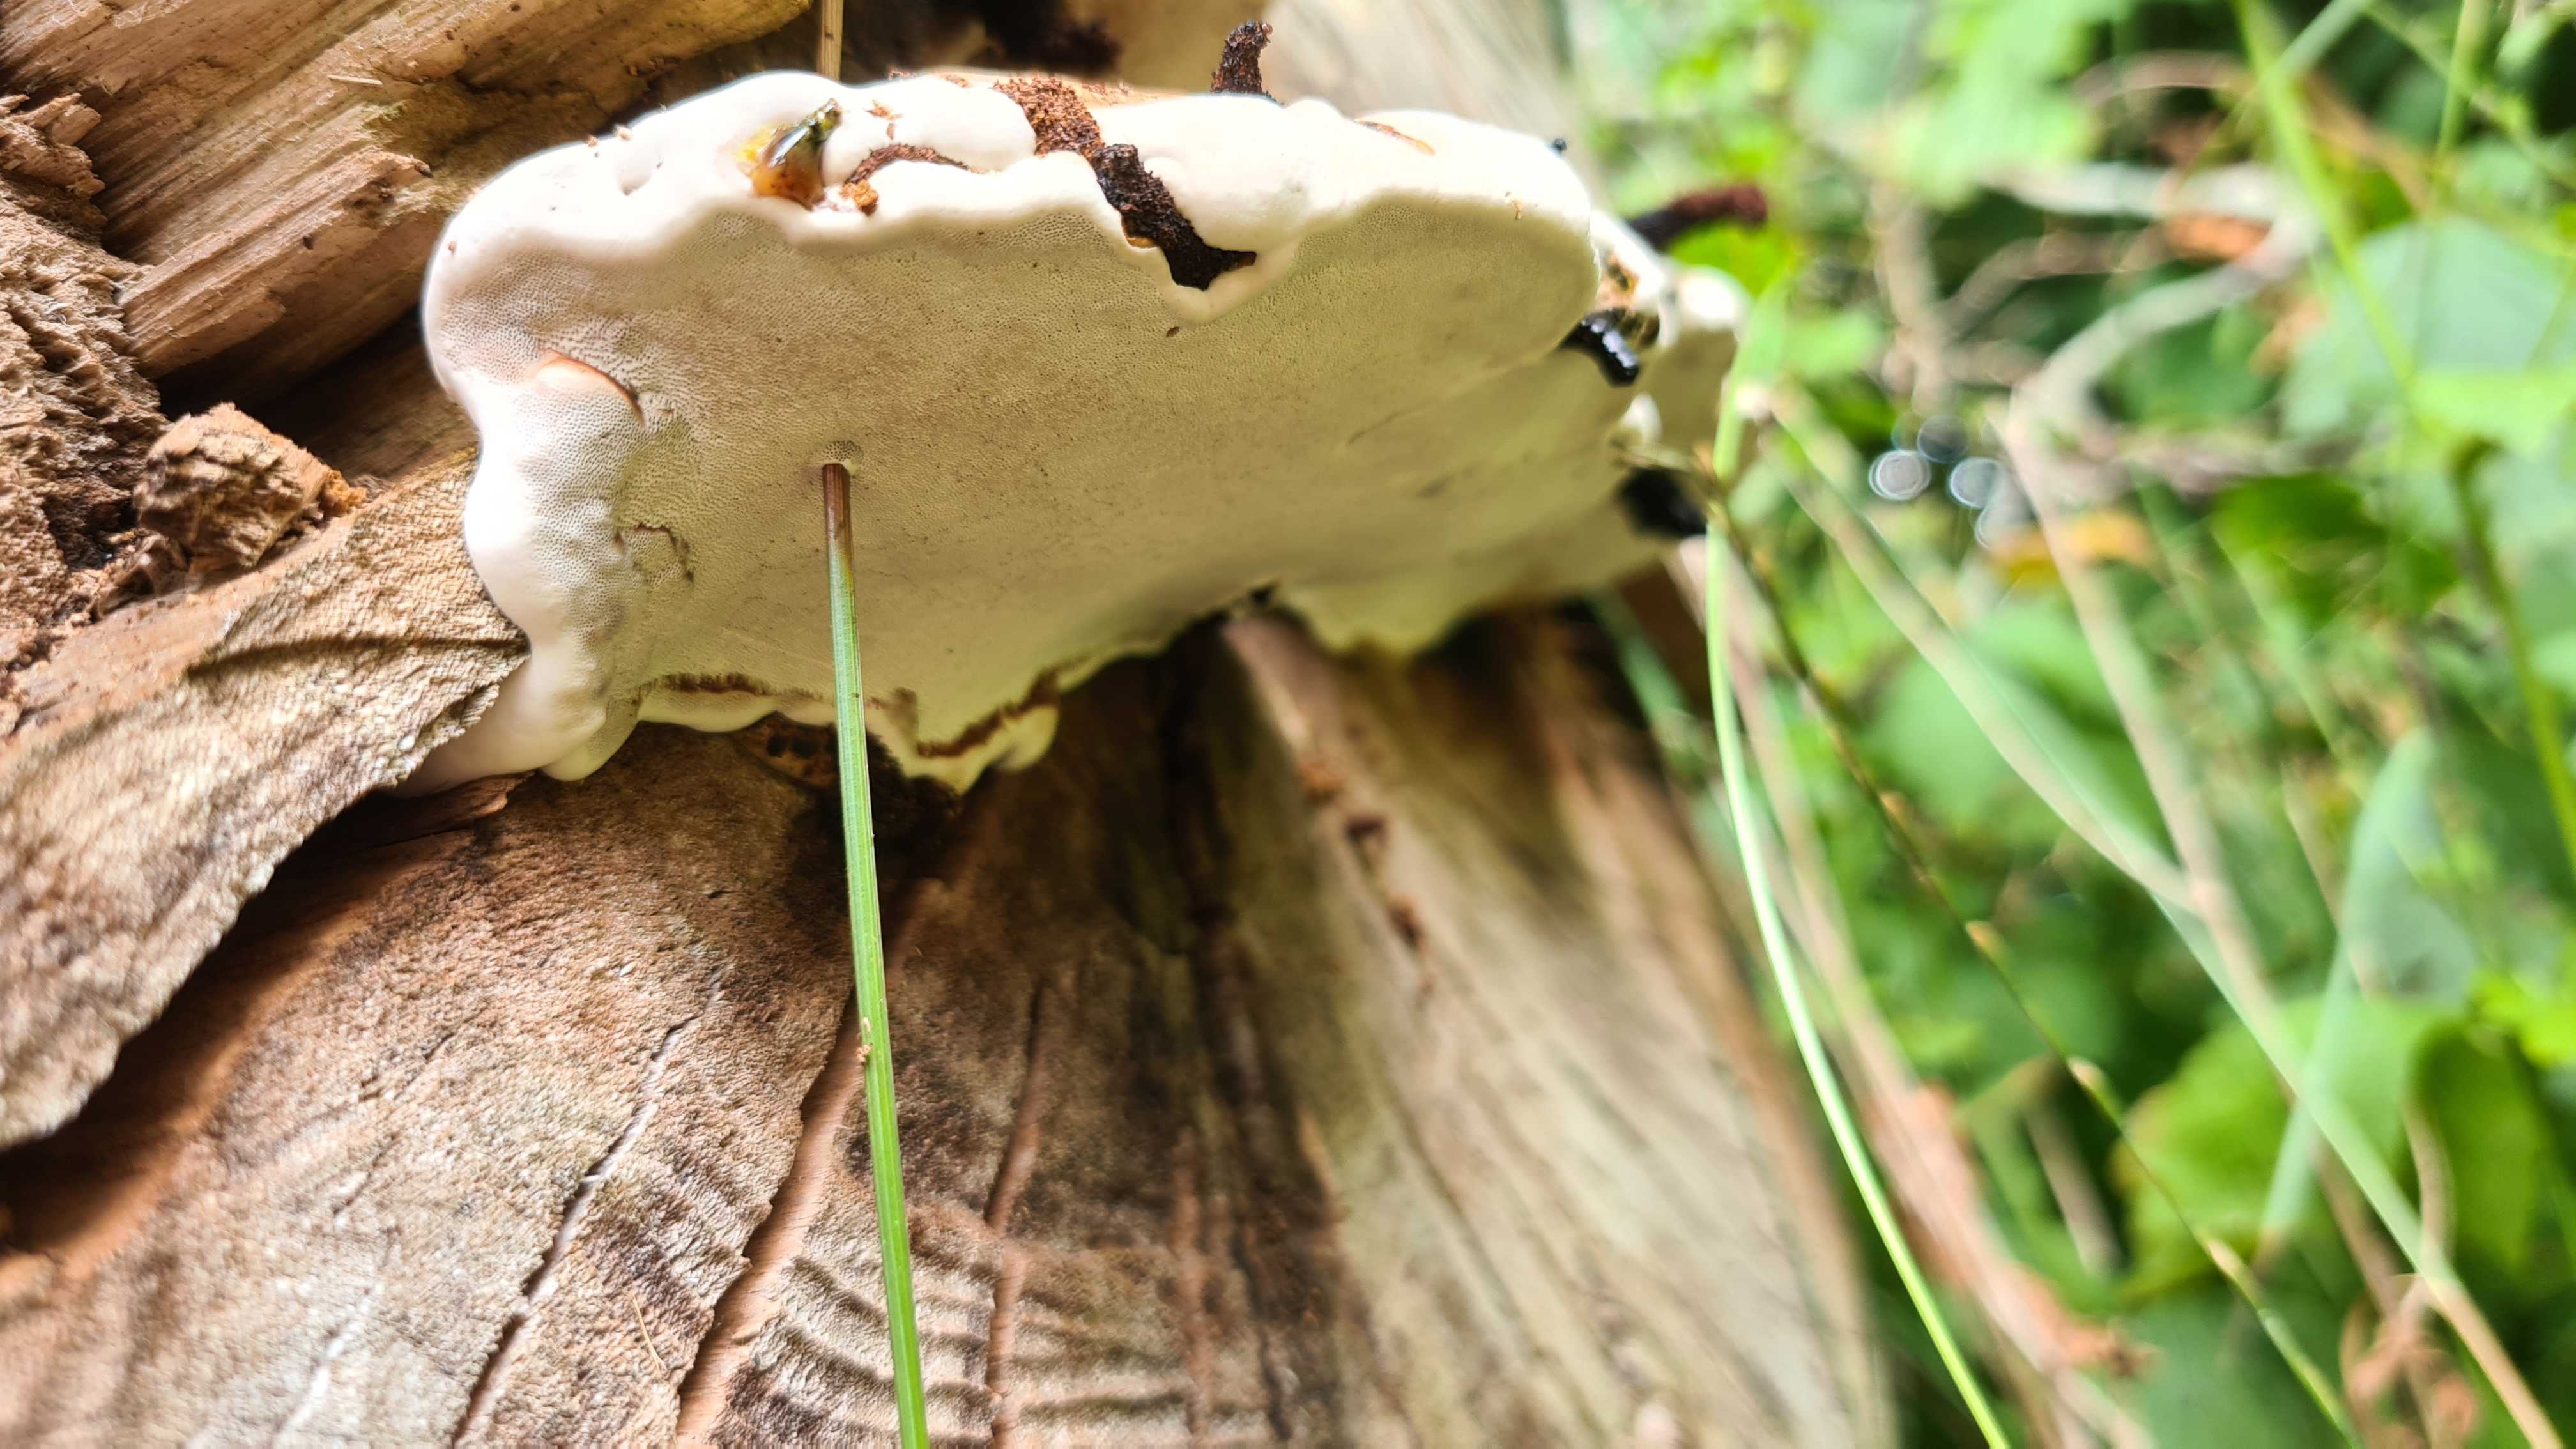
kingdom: Fungi
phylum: Basidiomycota
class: Agaricomycetes
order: Polyporales
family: Polyporaceae
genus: Ganoderma
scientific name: Ganoderma applanatum
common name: flad lakporesvamp
